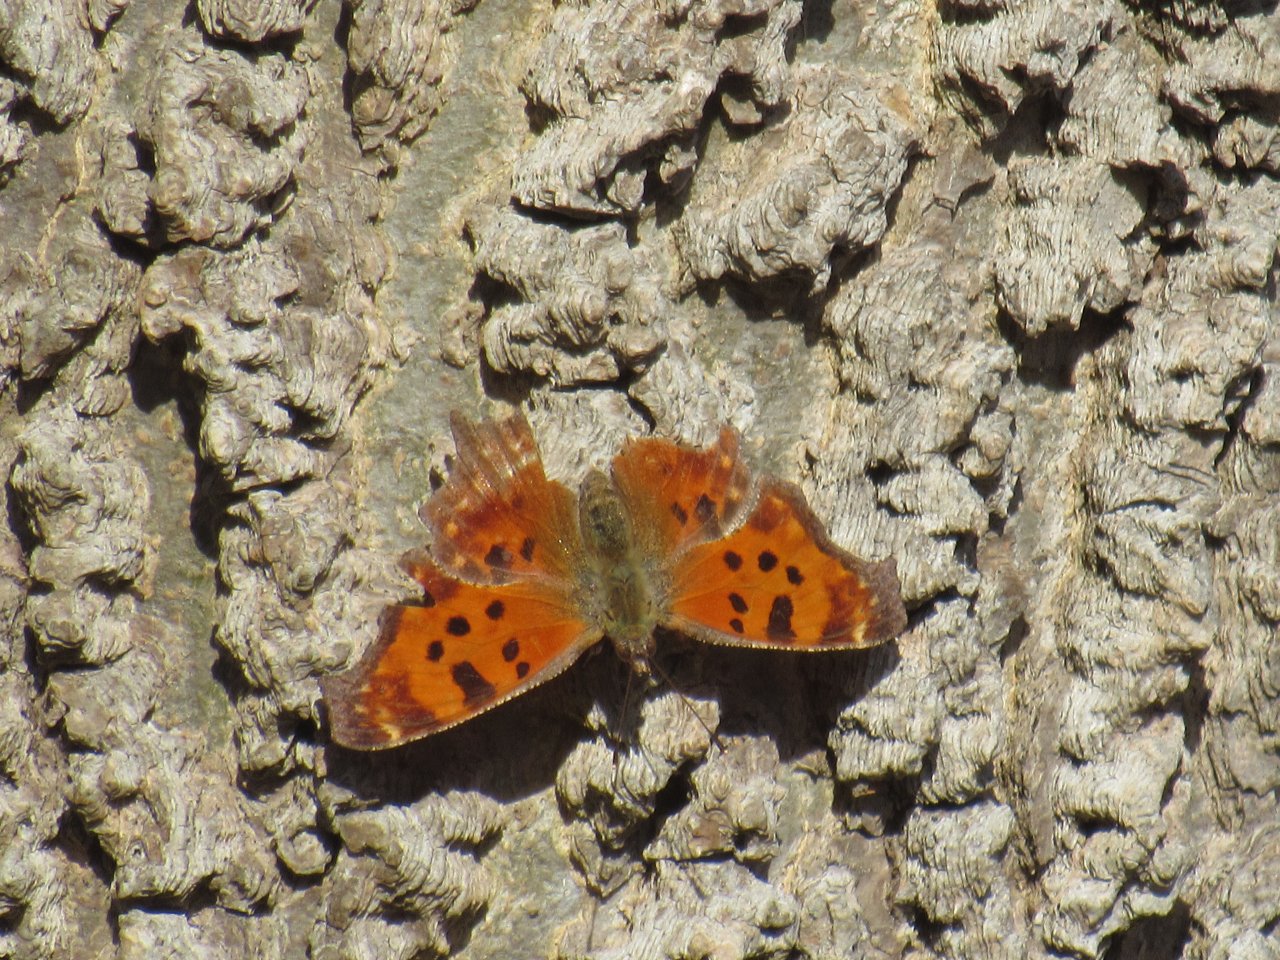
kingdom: Animalia
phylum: Arthropoda
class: Insecta
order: Lepidoptera
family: Nymphalidae
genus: Polygonia
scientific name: Polygonia comma
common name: Eastern Comma
